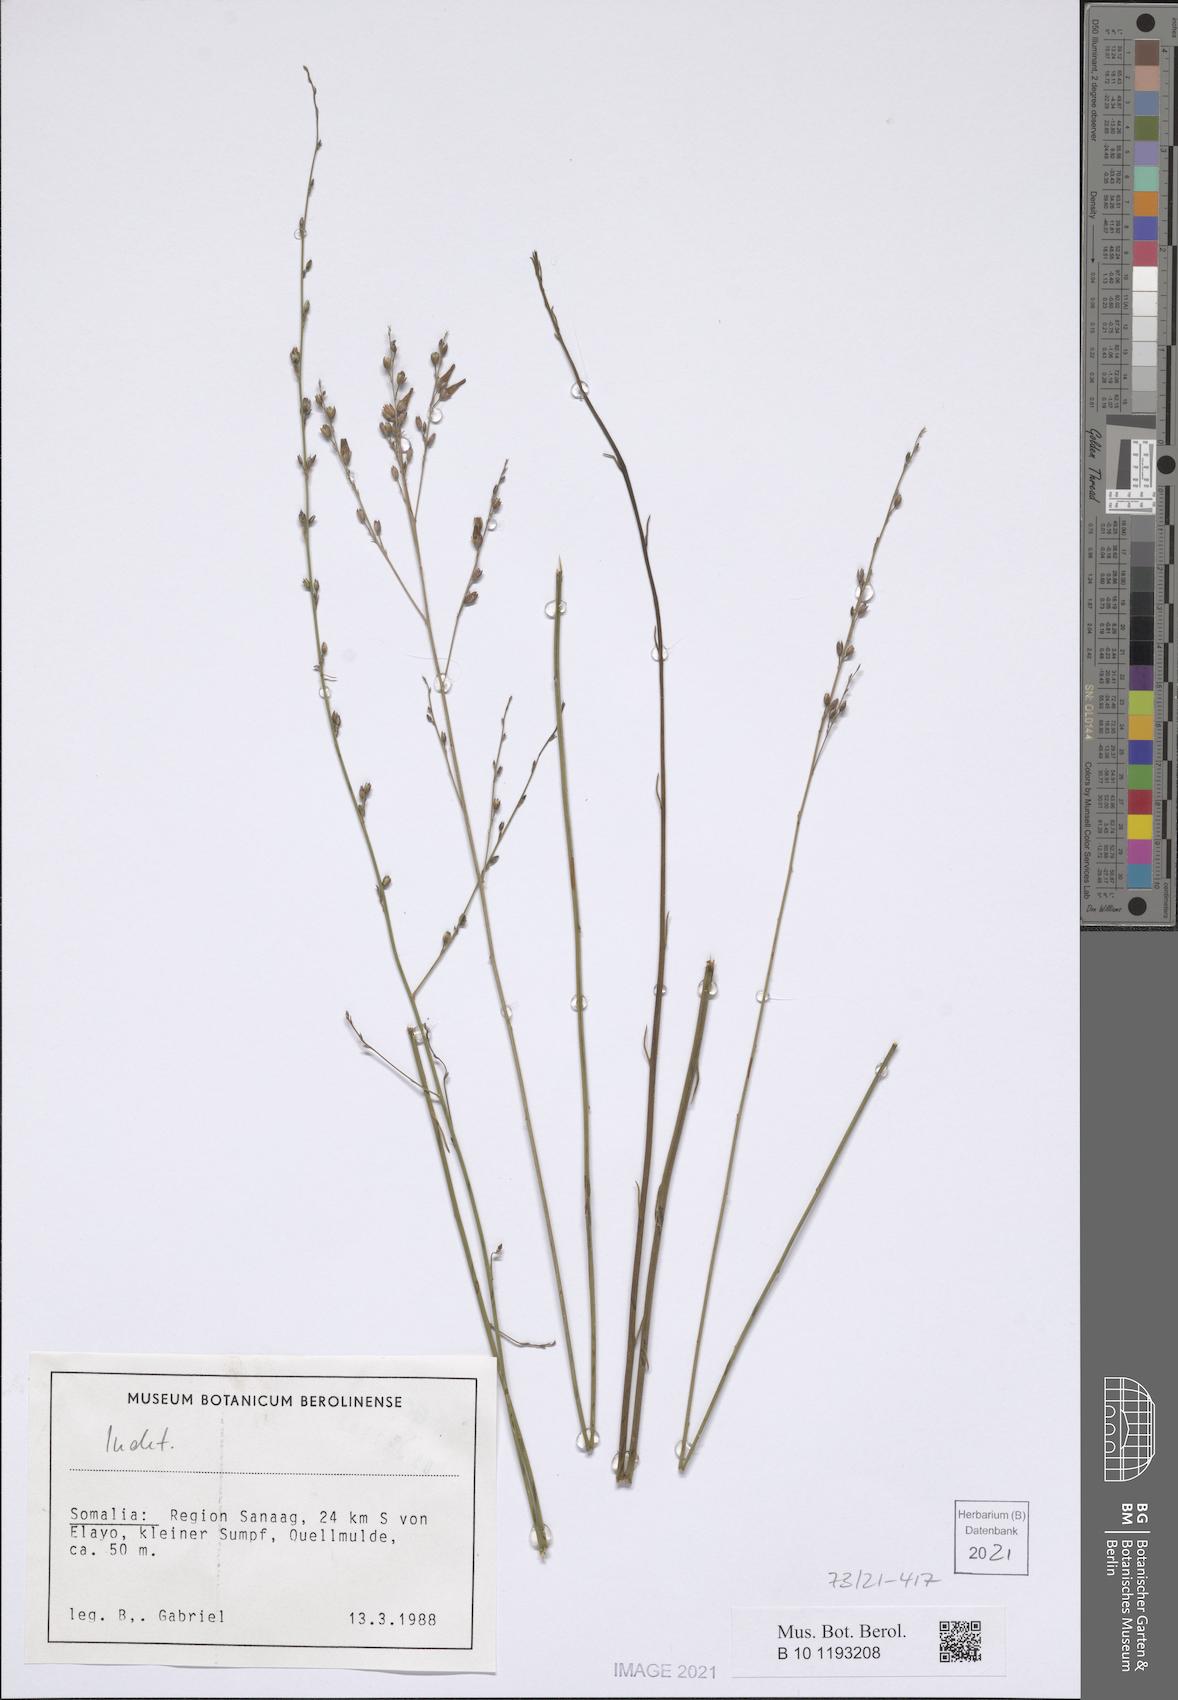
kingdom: Plantae
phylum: Tracheophyta
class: Magnoliopsida
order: Solanales
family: Convolvulaceae
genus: Convolvulus
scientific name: Convolvulus sericophyllus
